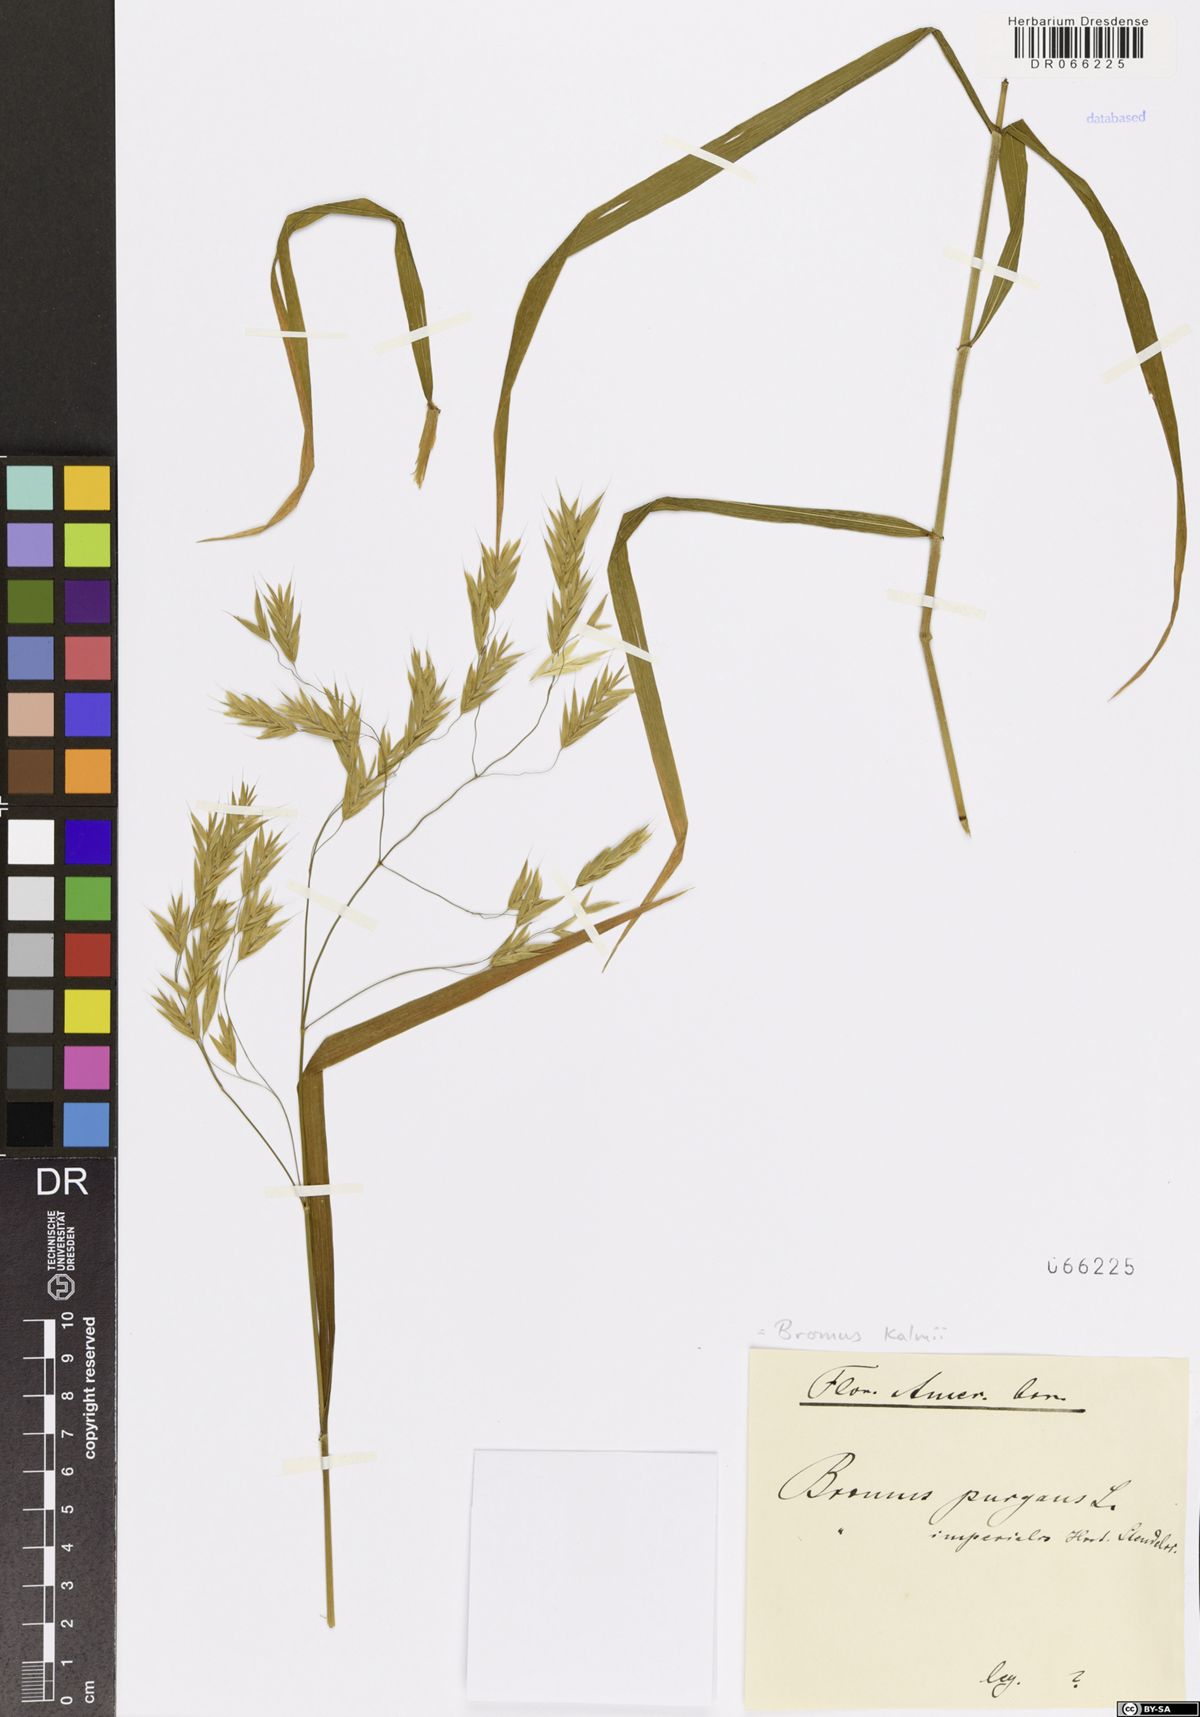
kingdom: Plantae
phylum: Tracheophyta
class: Liliopsida
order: Poales
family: Poaceae
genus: Bromus
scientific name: Bromus kalmii
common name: Kalm brome
